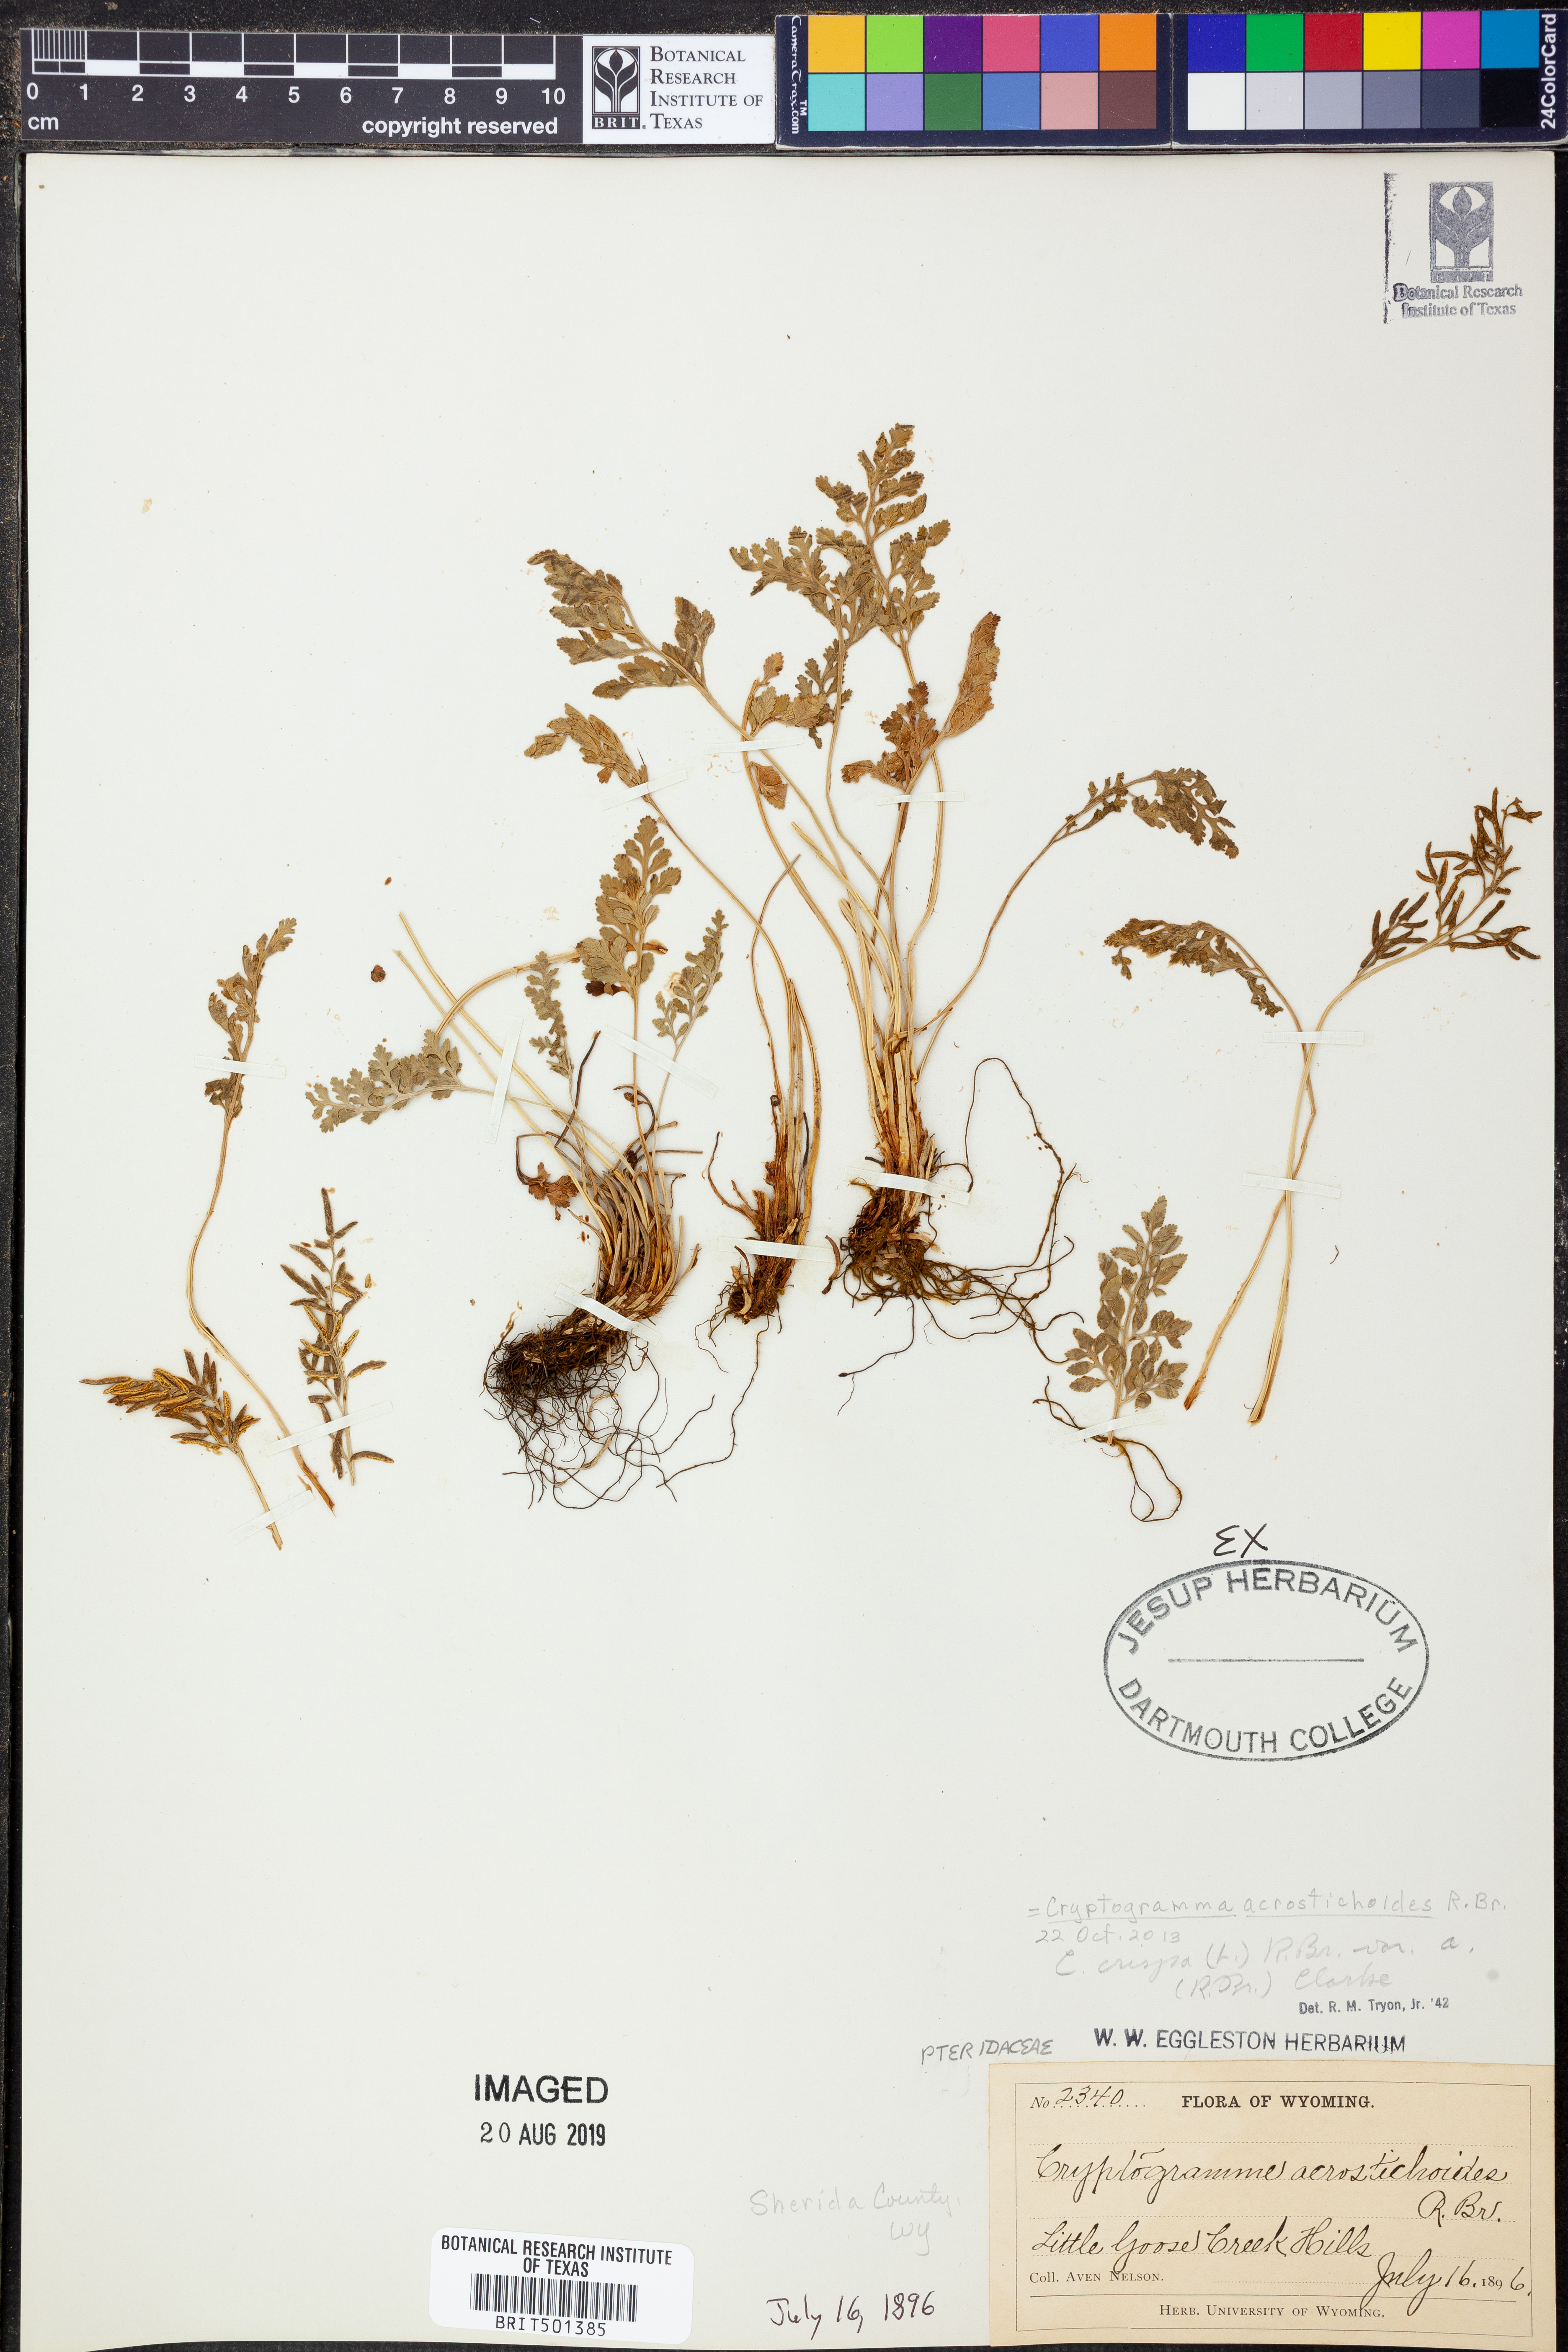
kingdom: Plantae
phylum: Tracheophyta
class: Polypodiopsida
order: Polypodiales
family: Pteridaceae
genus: Cryptogramma
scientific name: Cryptogramma acrostichoides
